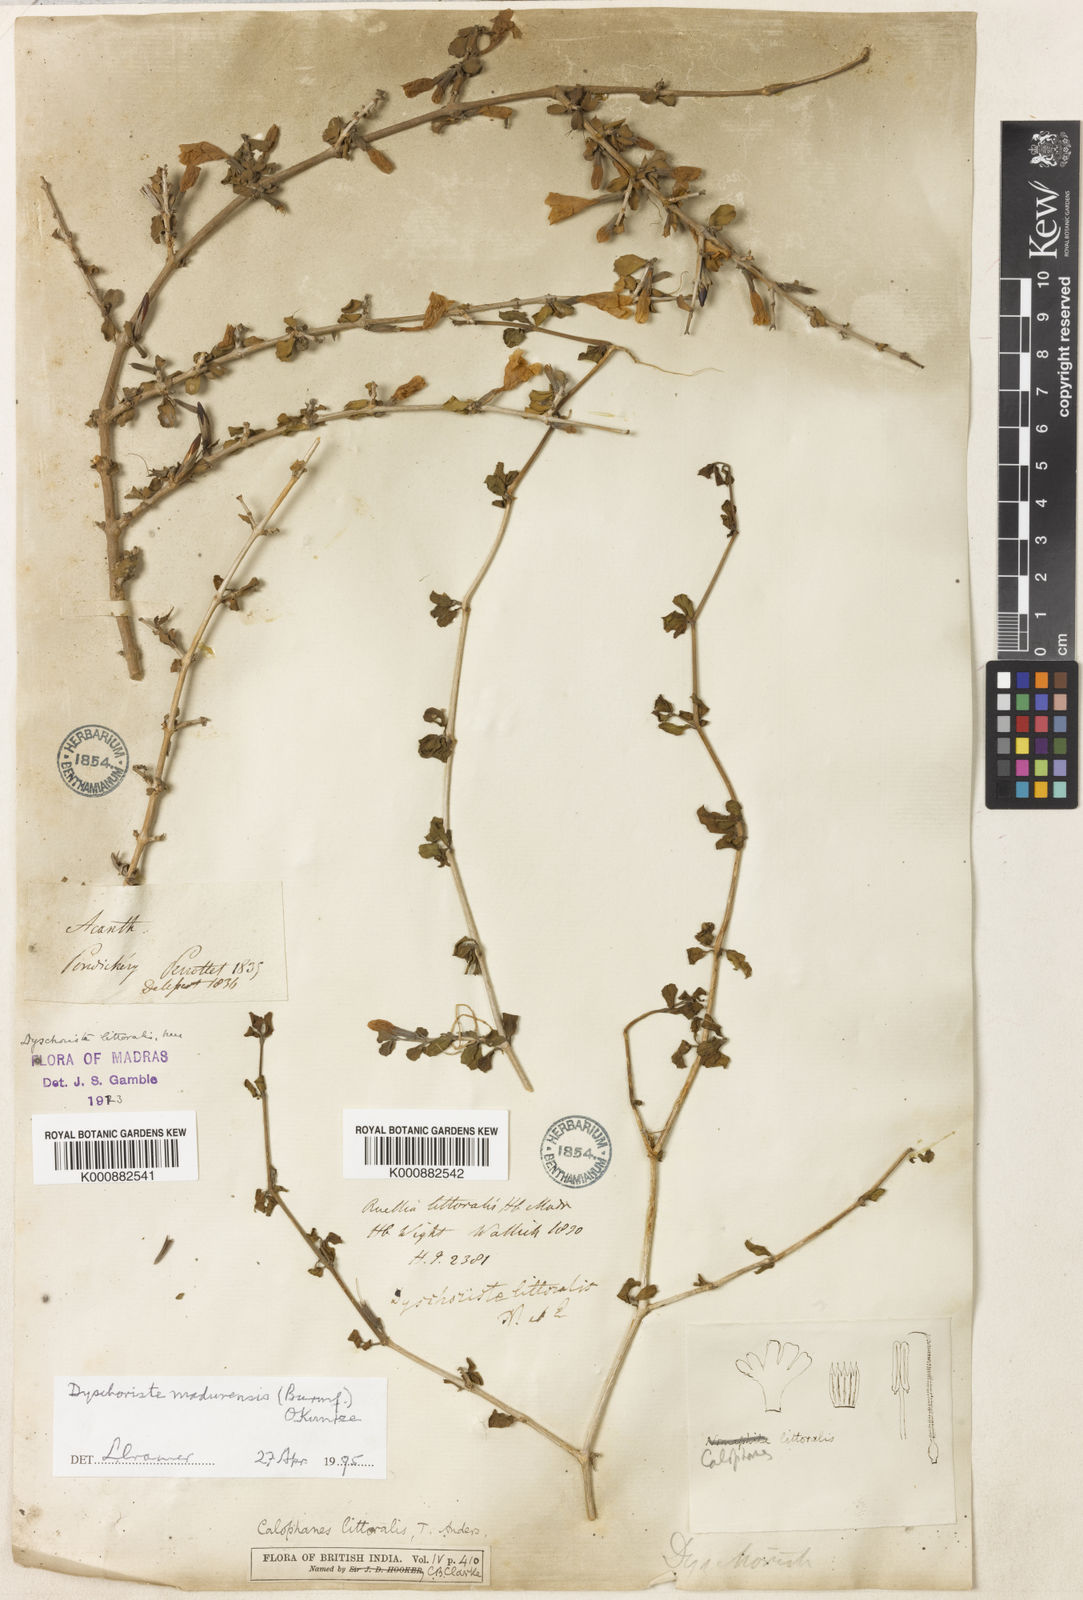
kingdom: Plantae
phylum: Tracheophyta
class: Magnoliopsida
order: Lamiales
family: Acanthaceae
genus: Dyschoriste
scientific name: Dyschoriste madurensis
